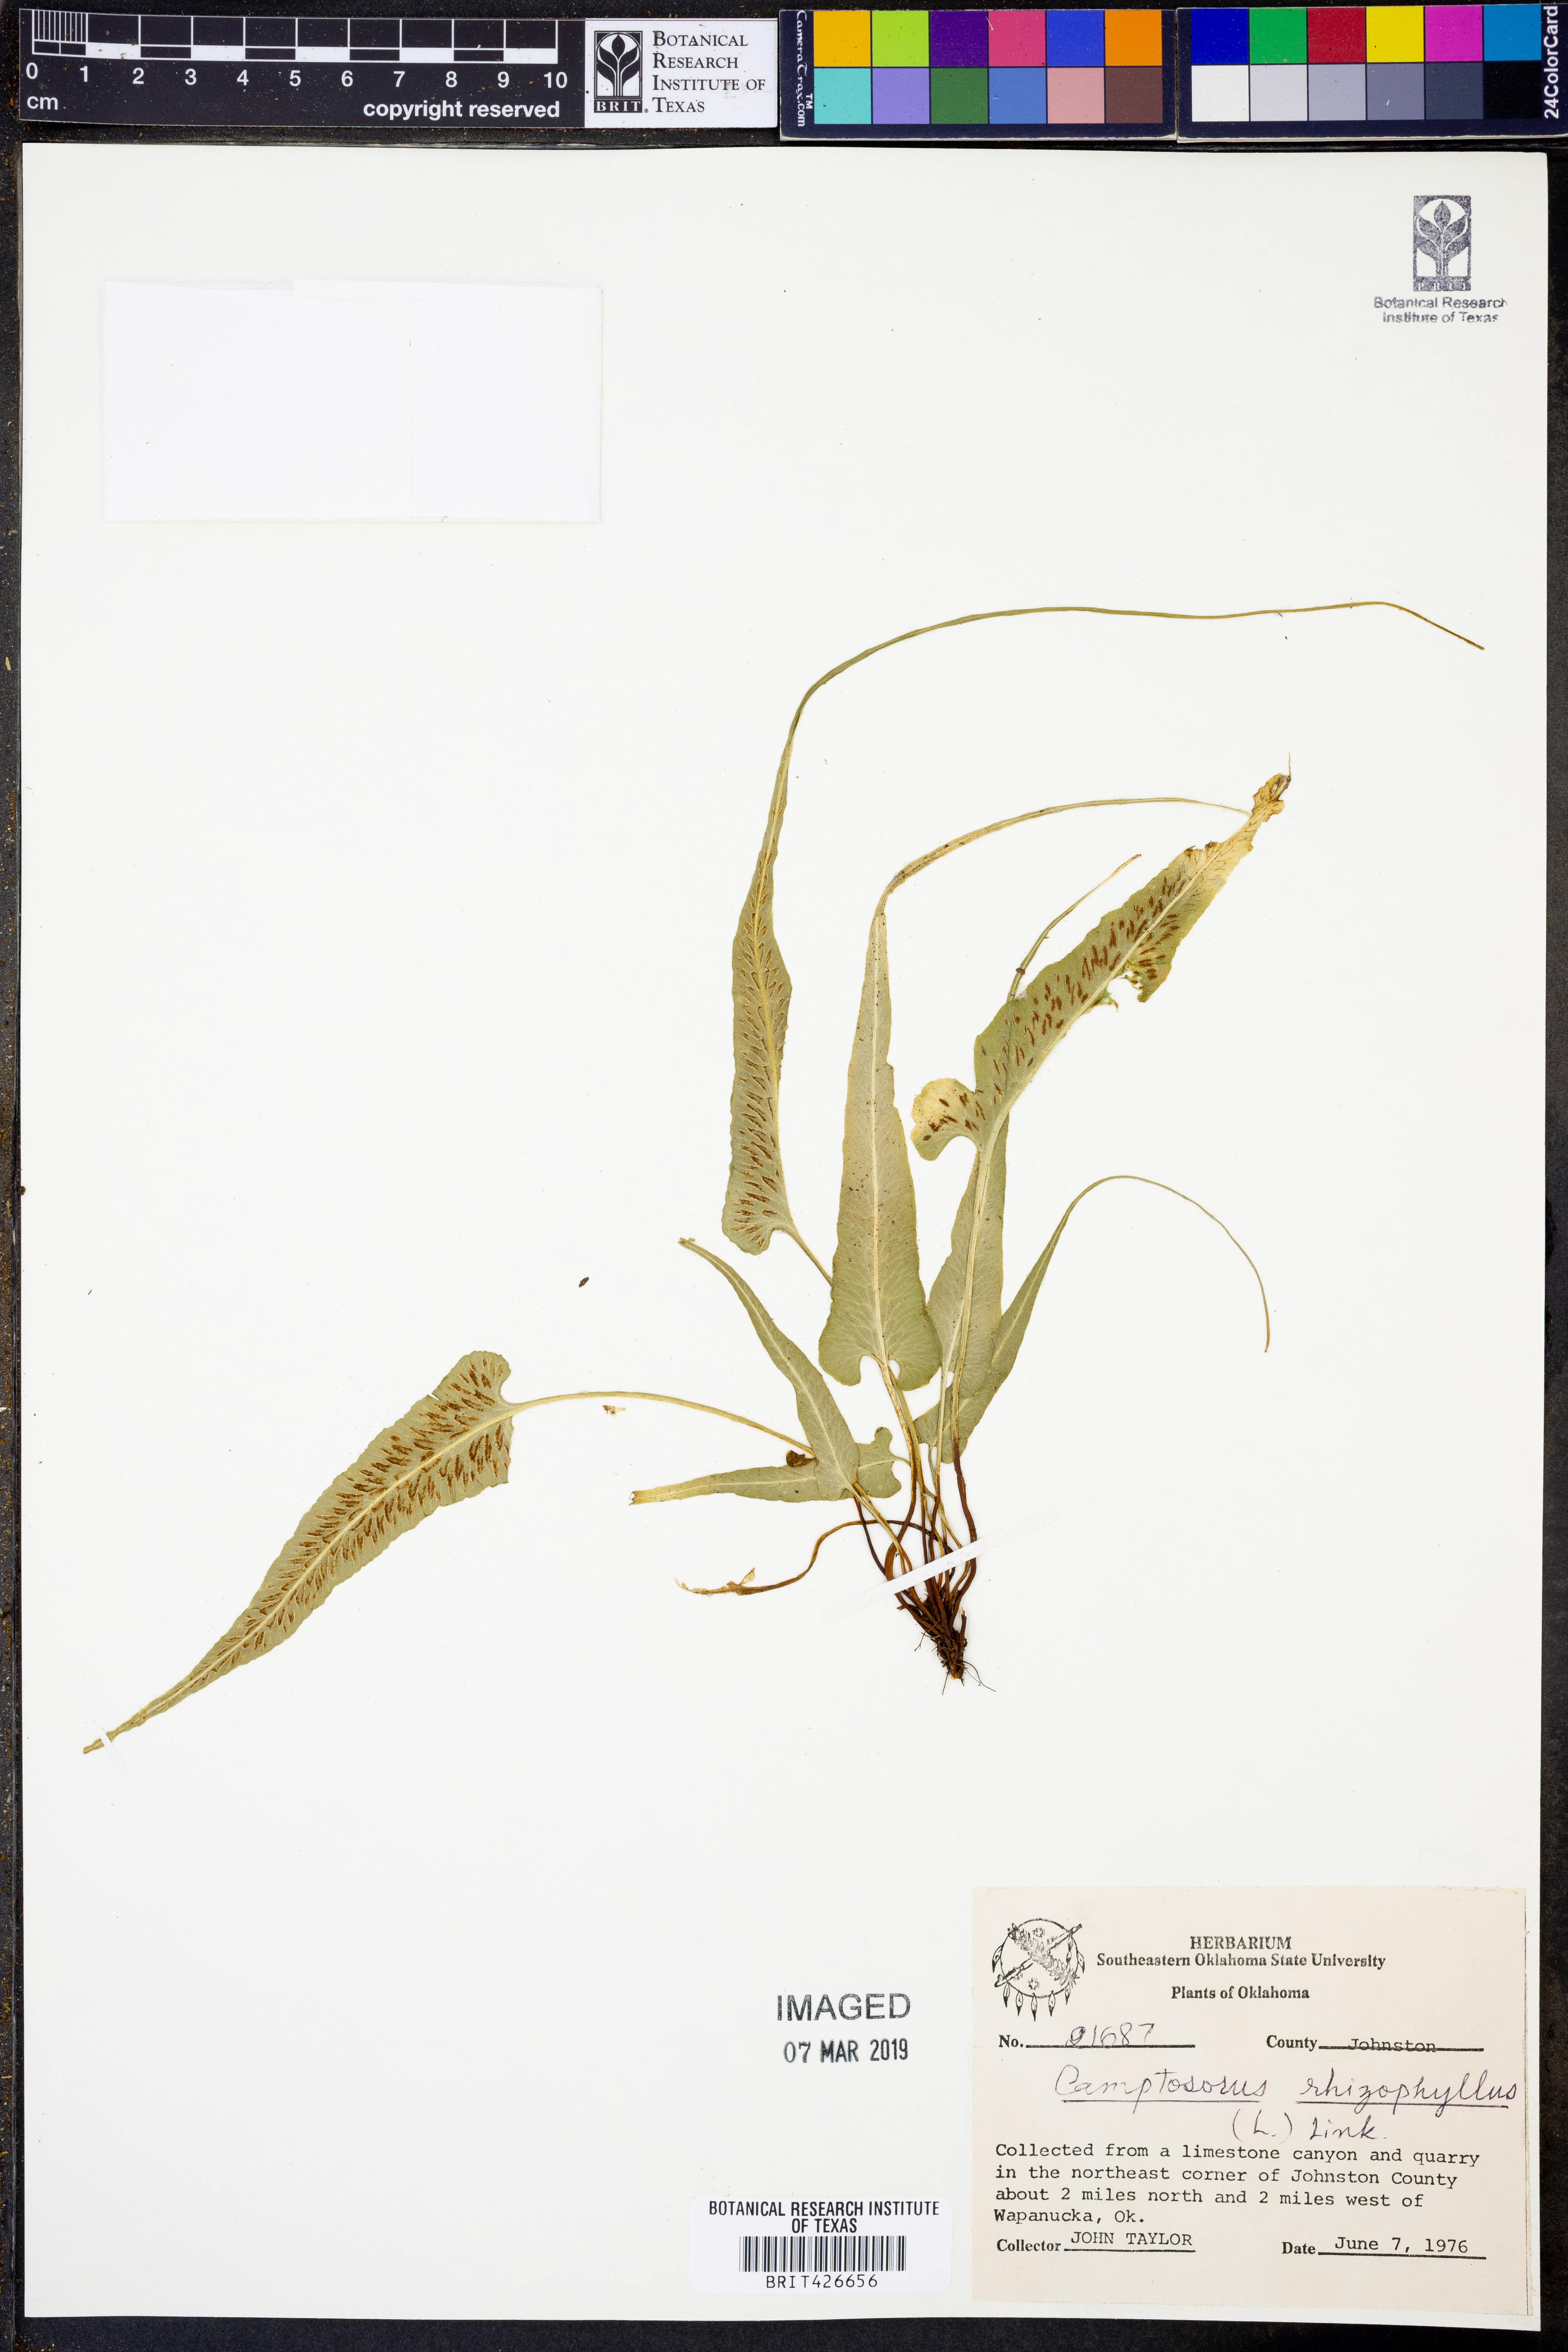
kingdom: Plantae
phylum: Tracheophyta
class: Polypodiopsida
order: Polypodiales
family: Aspleniaceae
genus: Asplenium
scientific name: Asplenium rhizophyllum
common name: Walking fern
